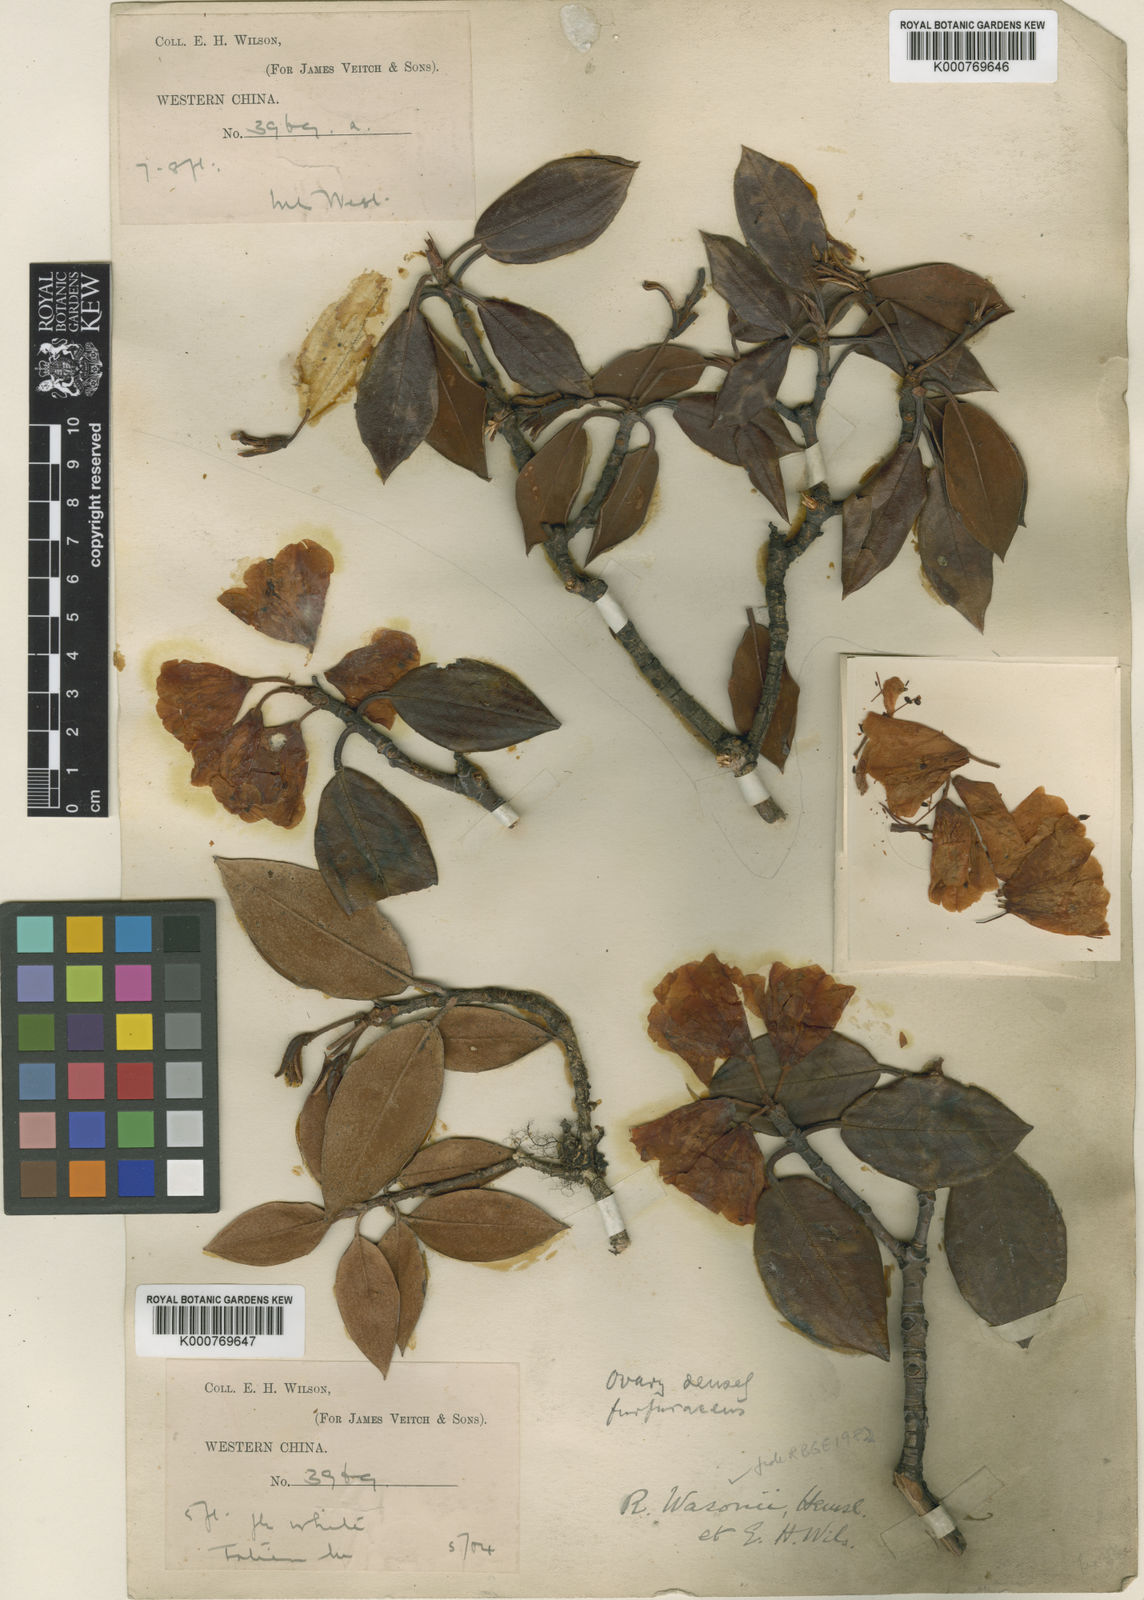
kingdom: Plantae
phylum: Tracheophyta
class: Magnoliopsida
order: Ericales
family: Ericaceae
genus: Rhododendron
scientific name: Rhododendron wasonii
